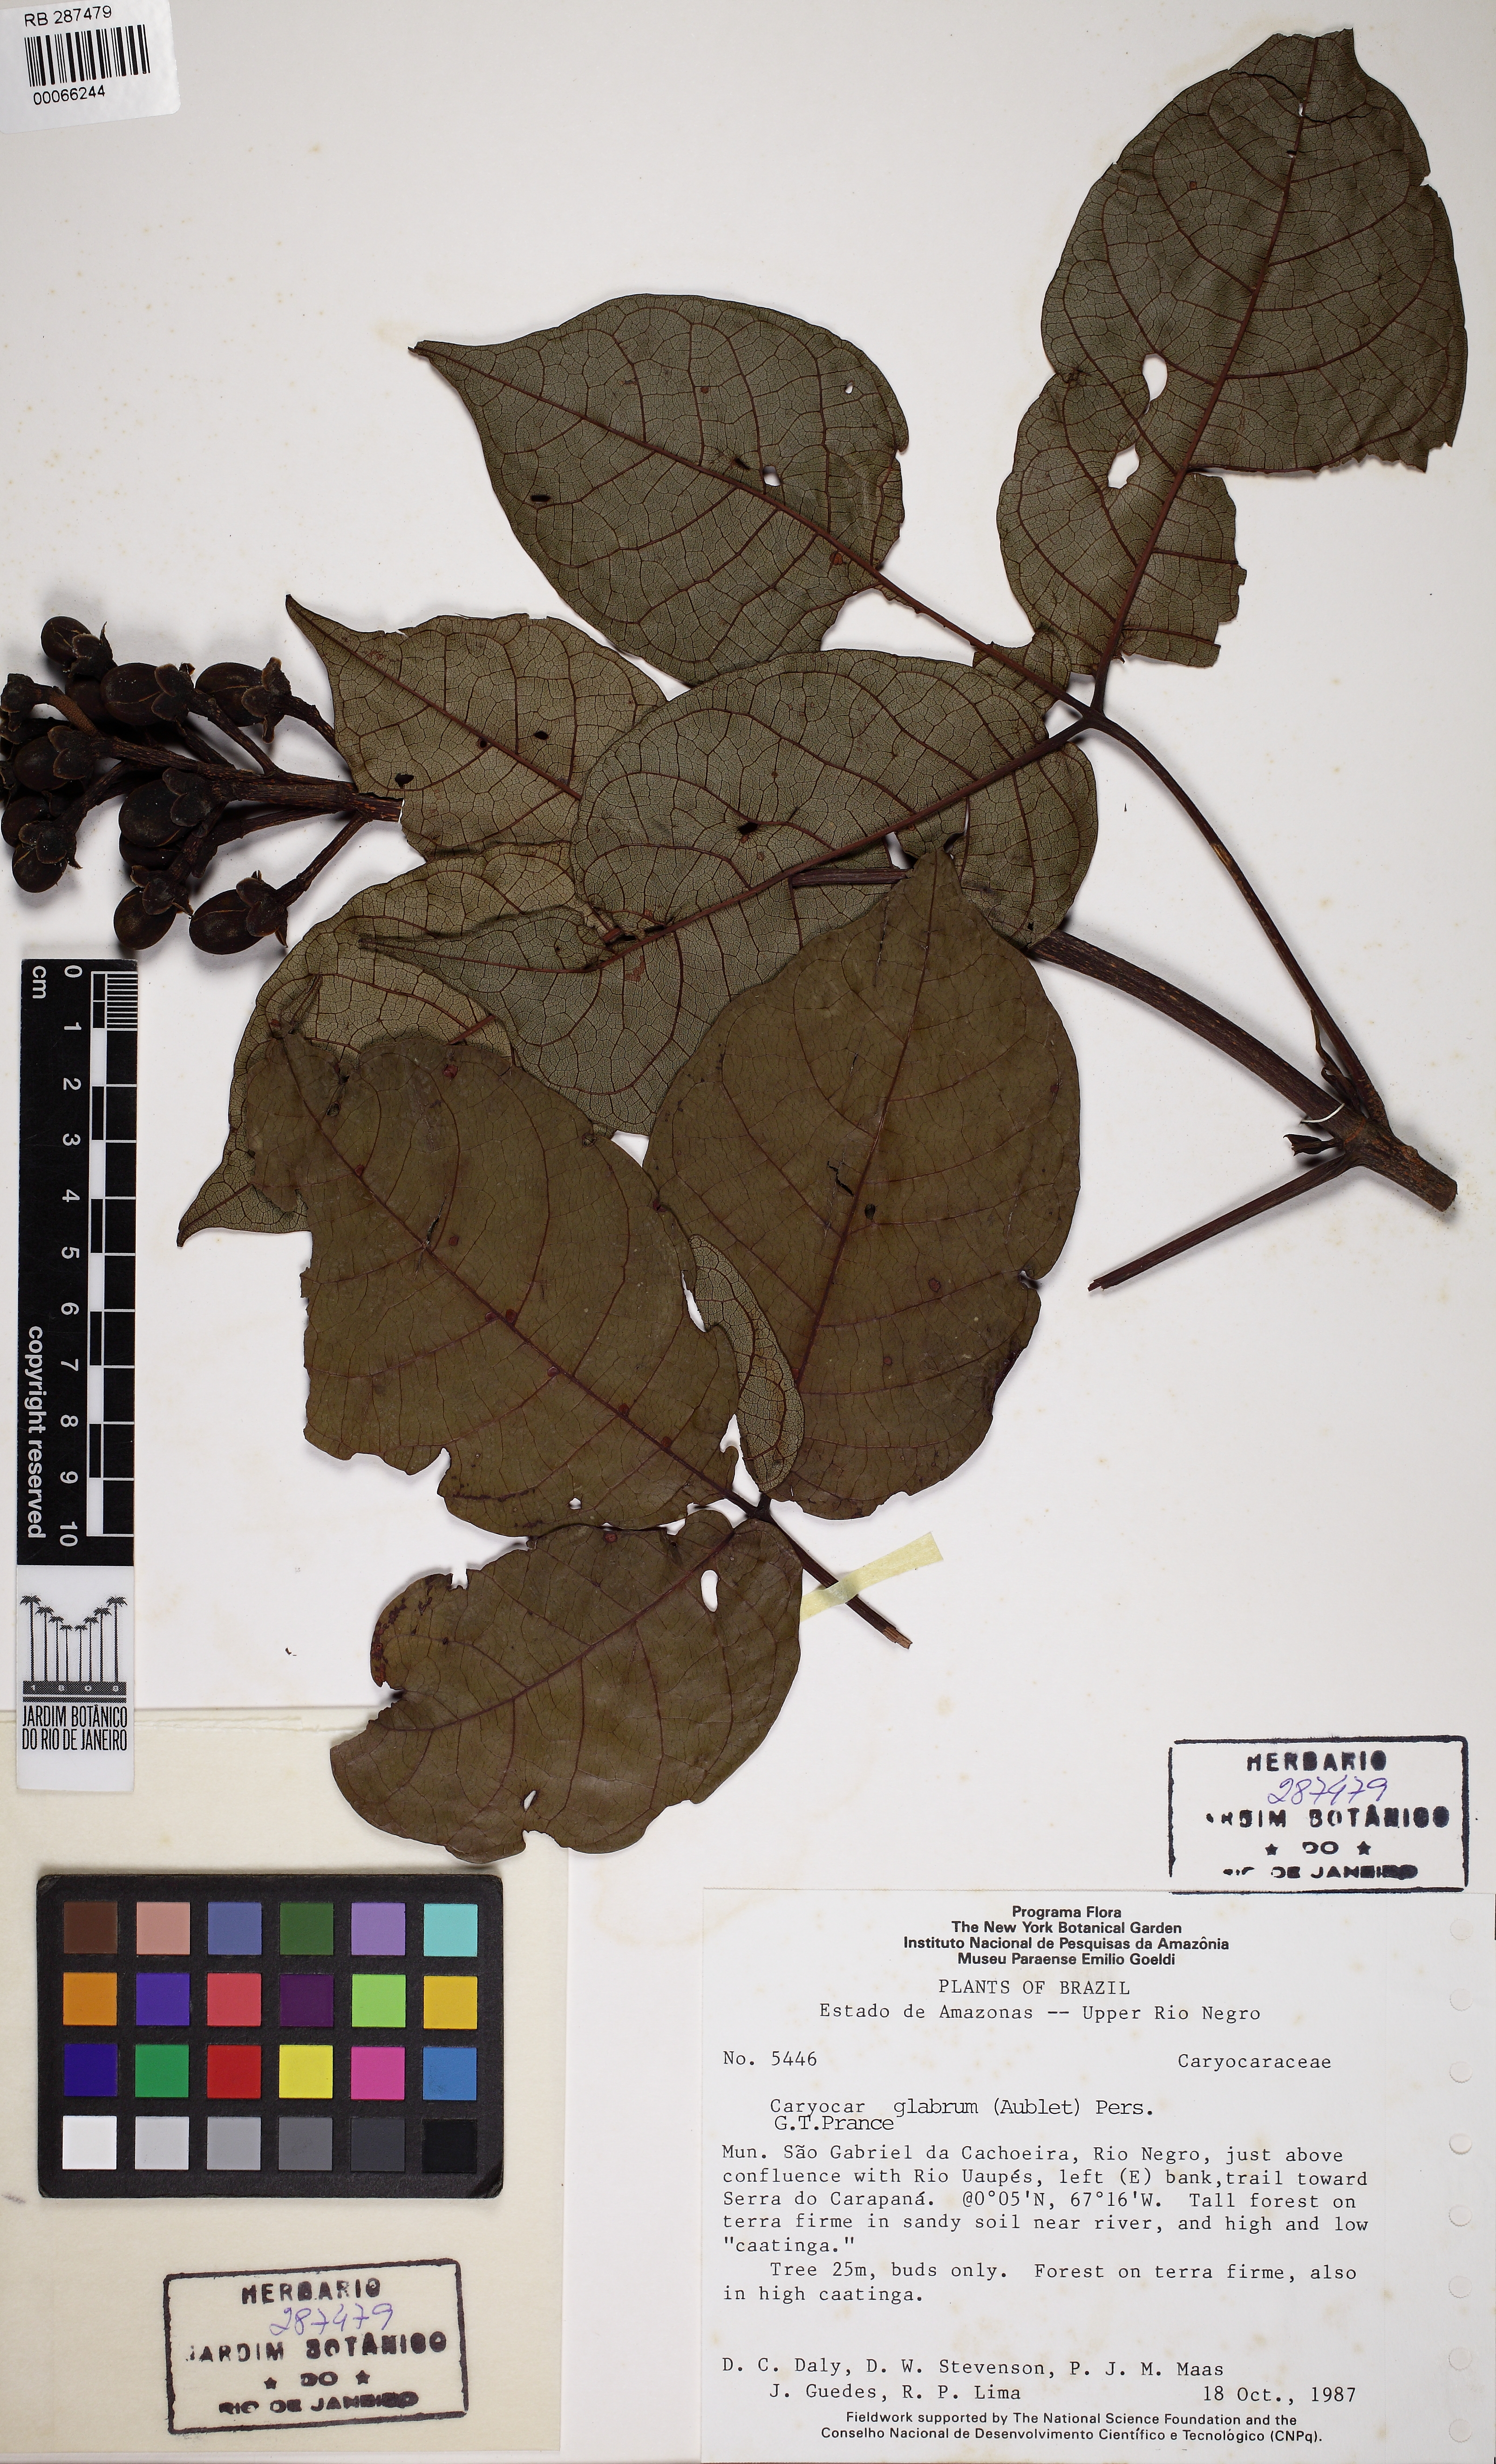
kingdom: Plantae
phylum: Tracheophyta
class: Magnoliopsida
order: Malpighiales
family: Caryocaraceae
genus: Caryocar
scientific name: Caryocar glabrum
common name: Bat's souari
